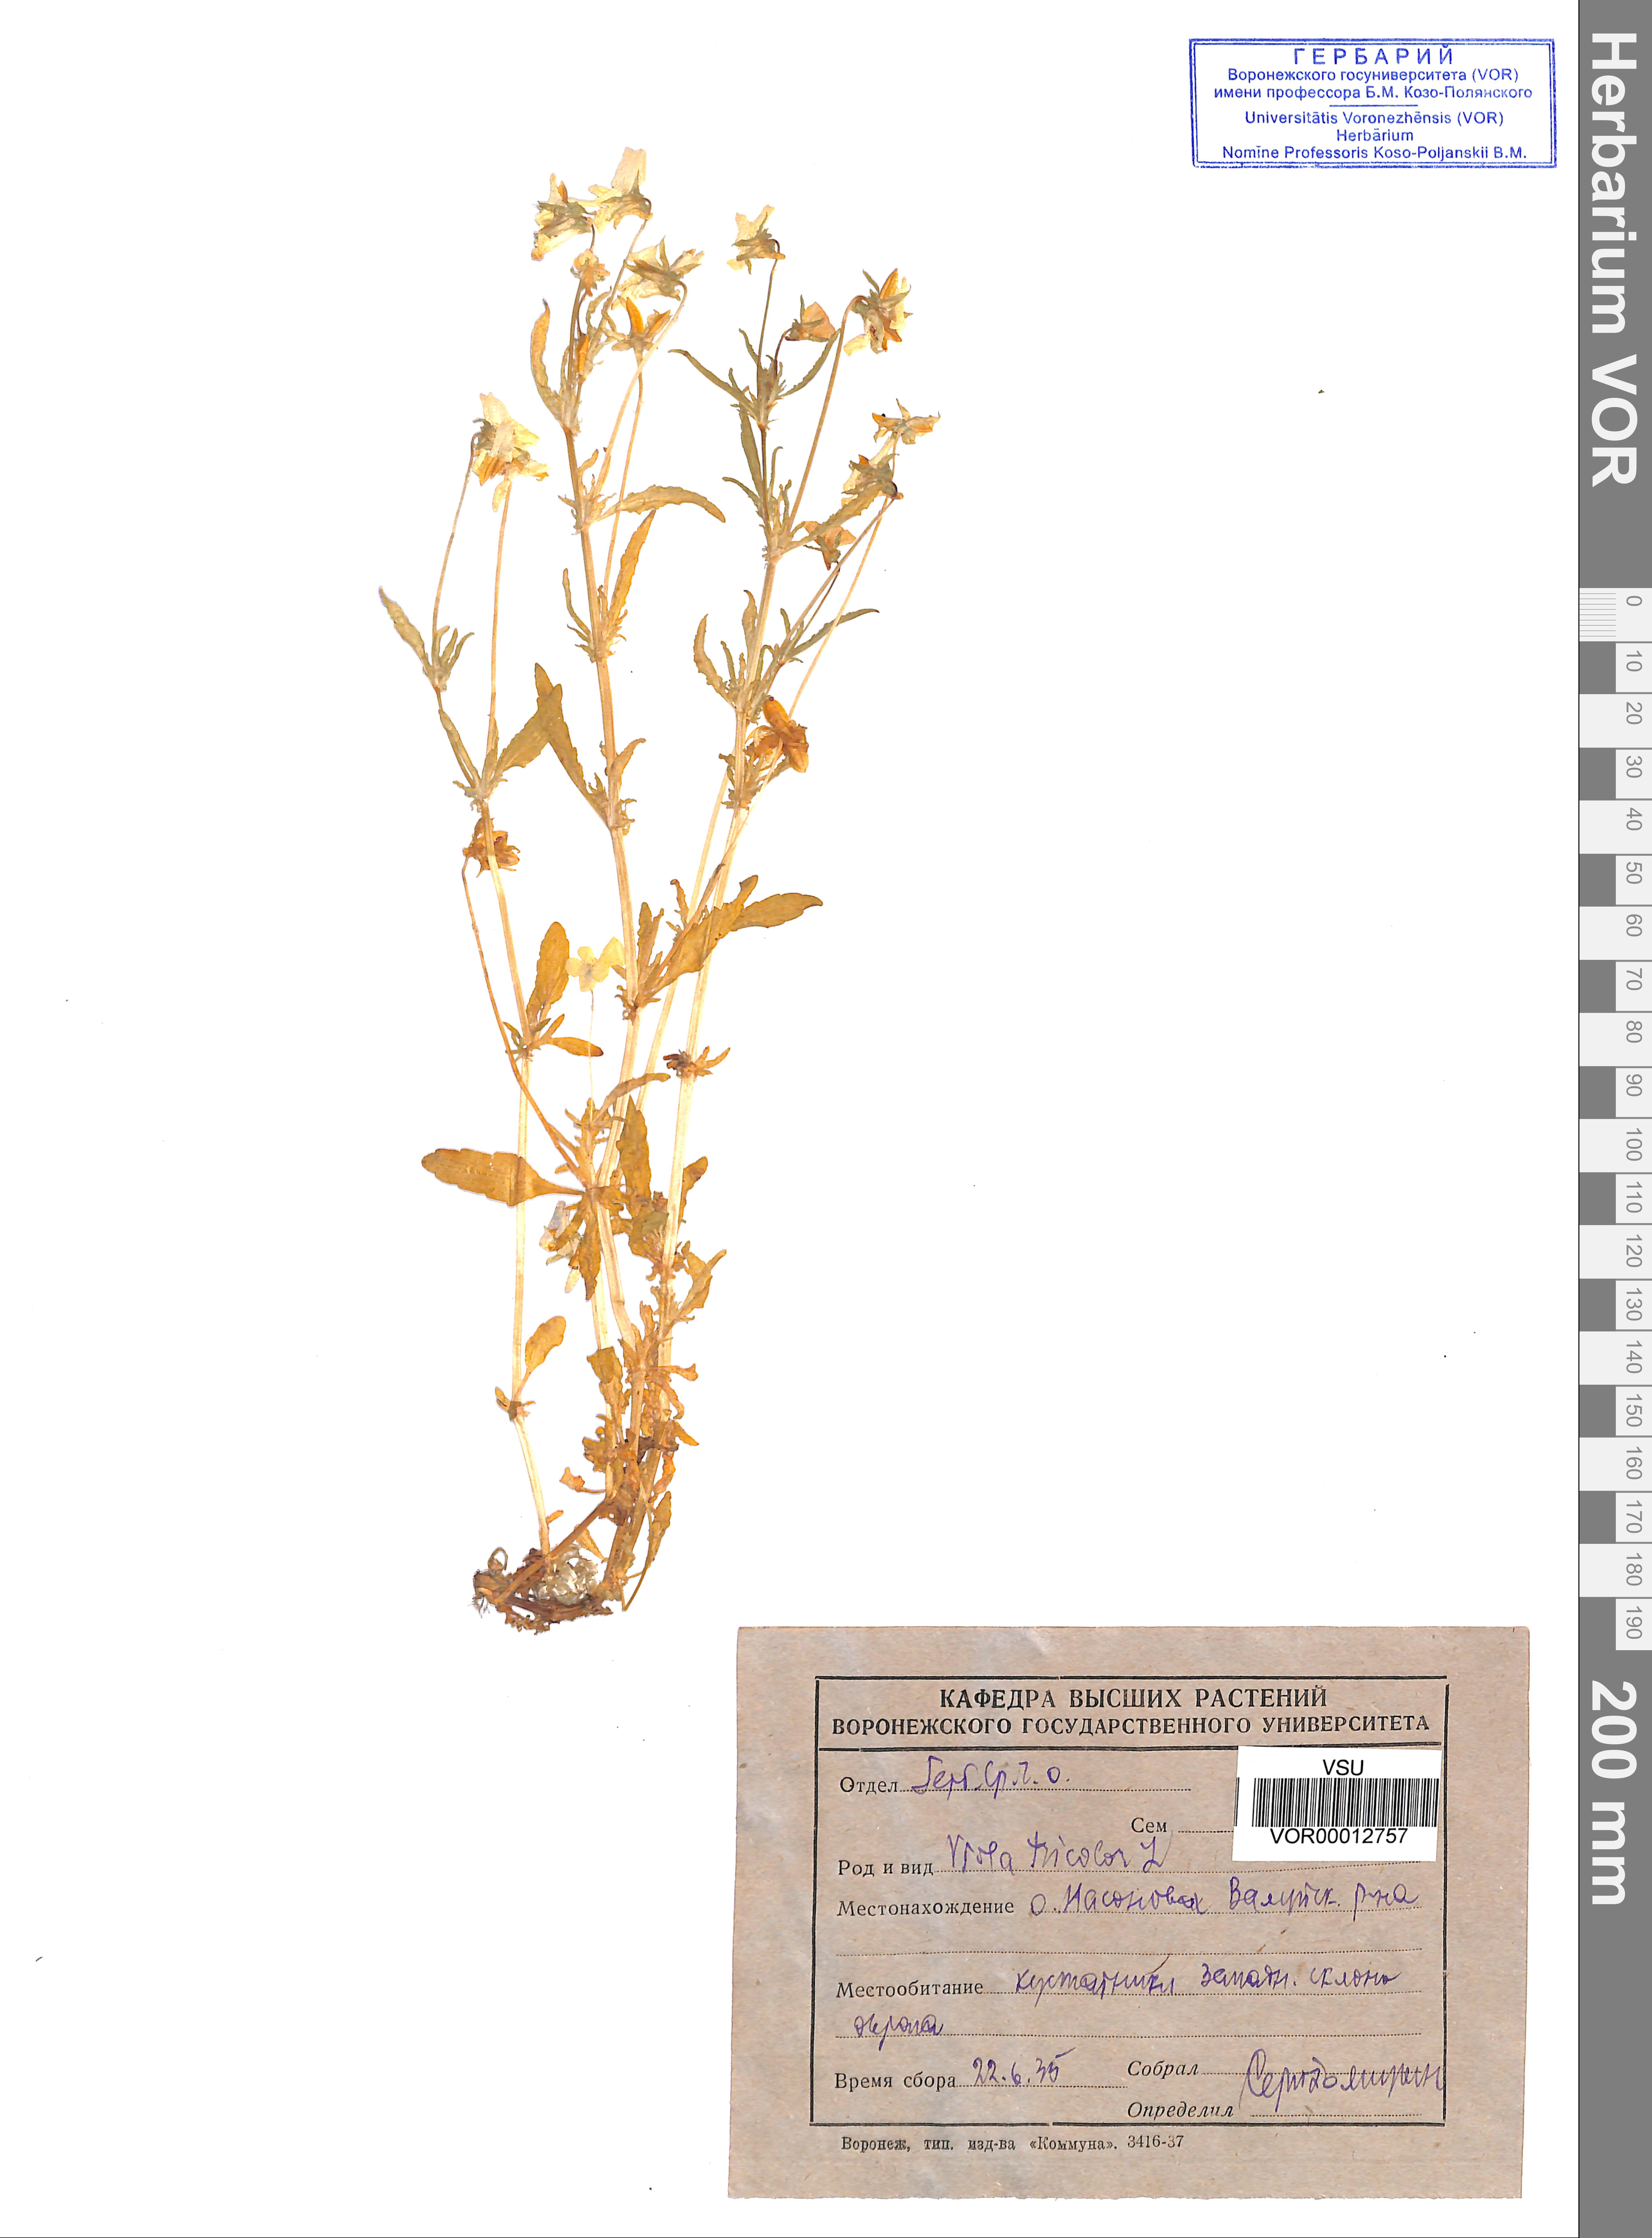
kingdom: Plantae
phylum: Tracheophyta
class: Magnoliopsida
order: Malpighiales
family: Violaceae
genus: Viola
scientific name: Viola tricolor
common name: Pansy
